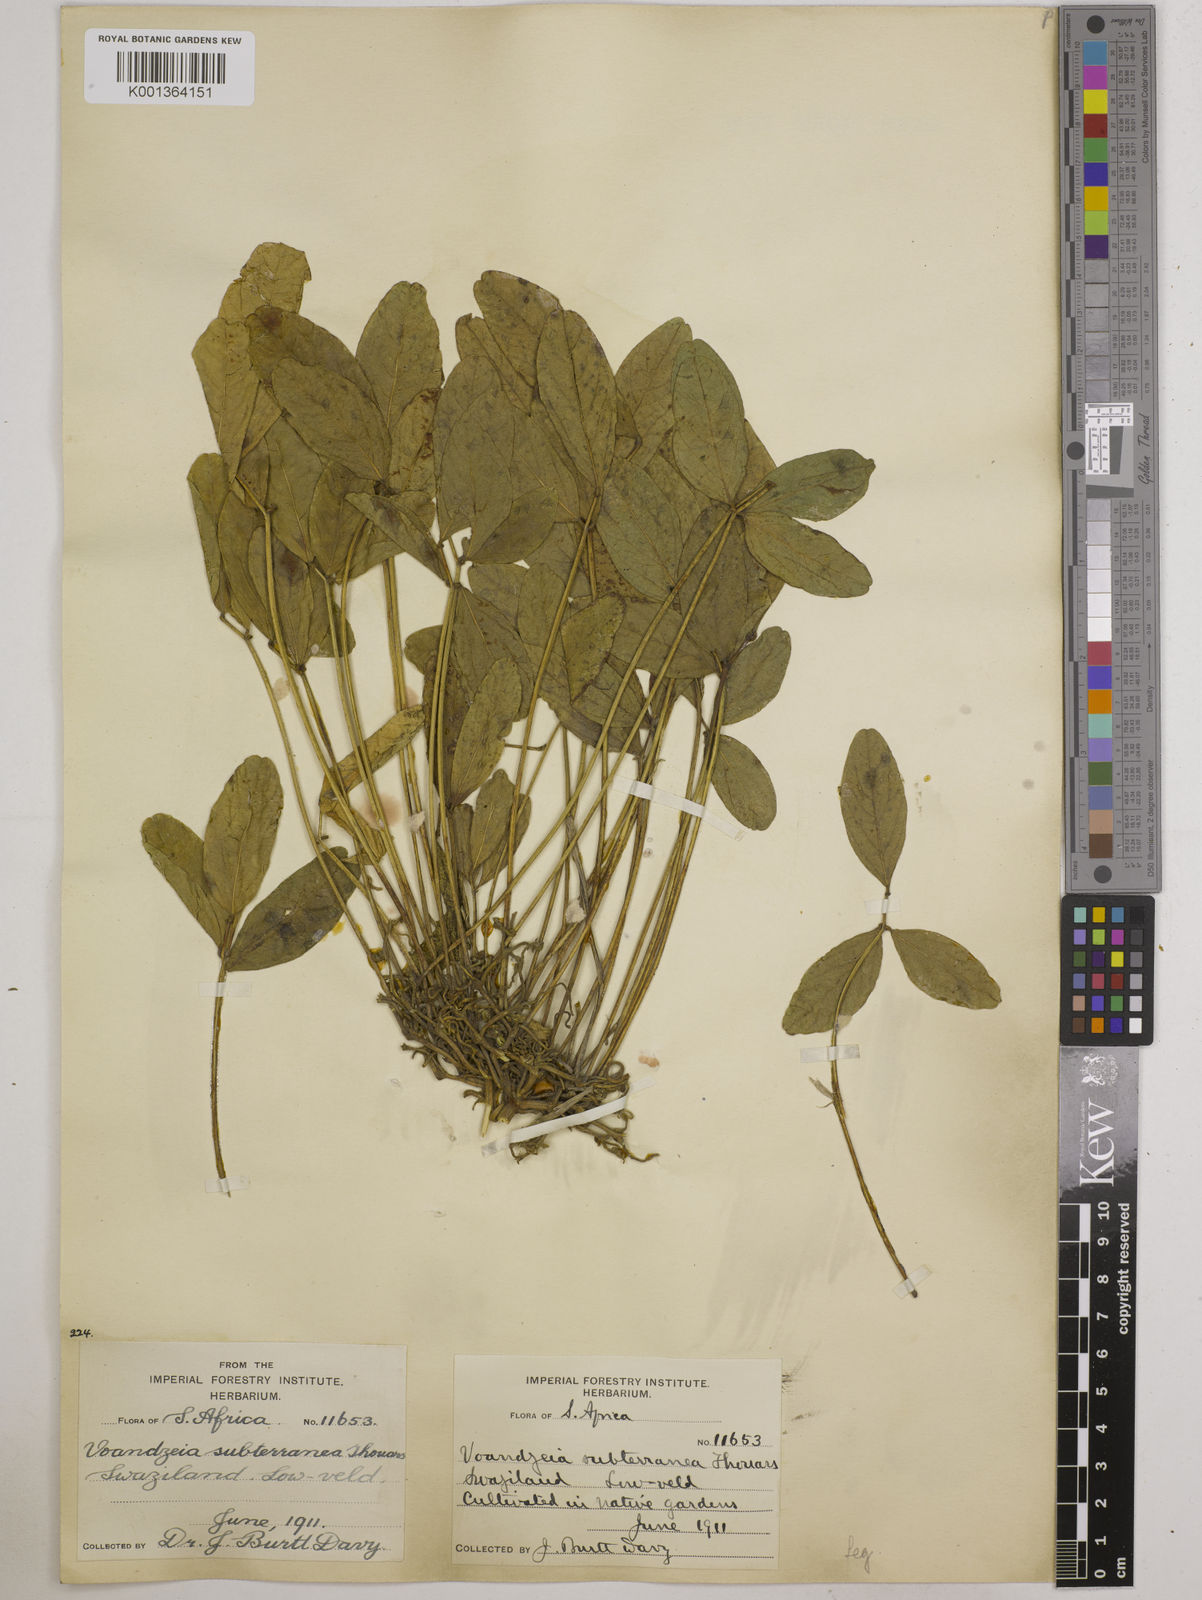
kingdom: Plantae
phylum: Tracheophyta
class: Magnoliopsida
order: Fabales
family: Fabaceae
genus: Vigna
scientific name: Vigna subterranea
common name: Bambara groundnut
